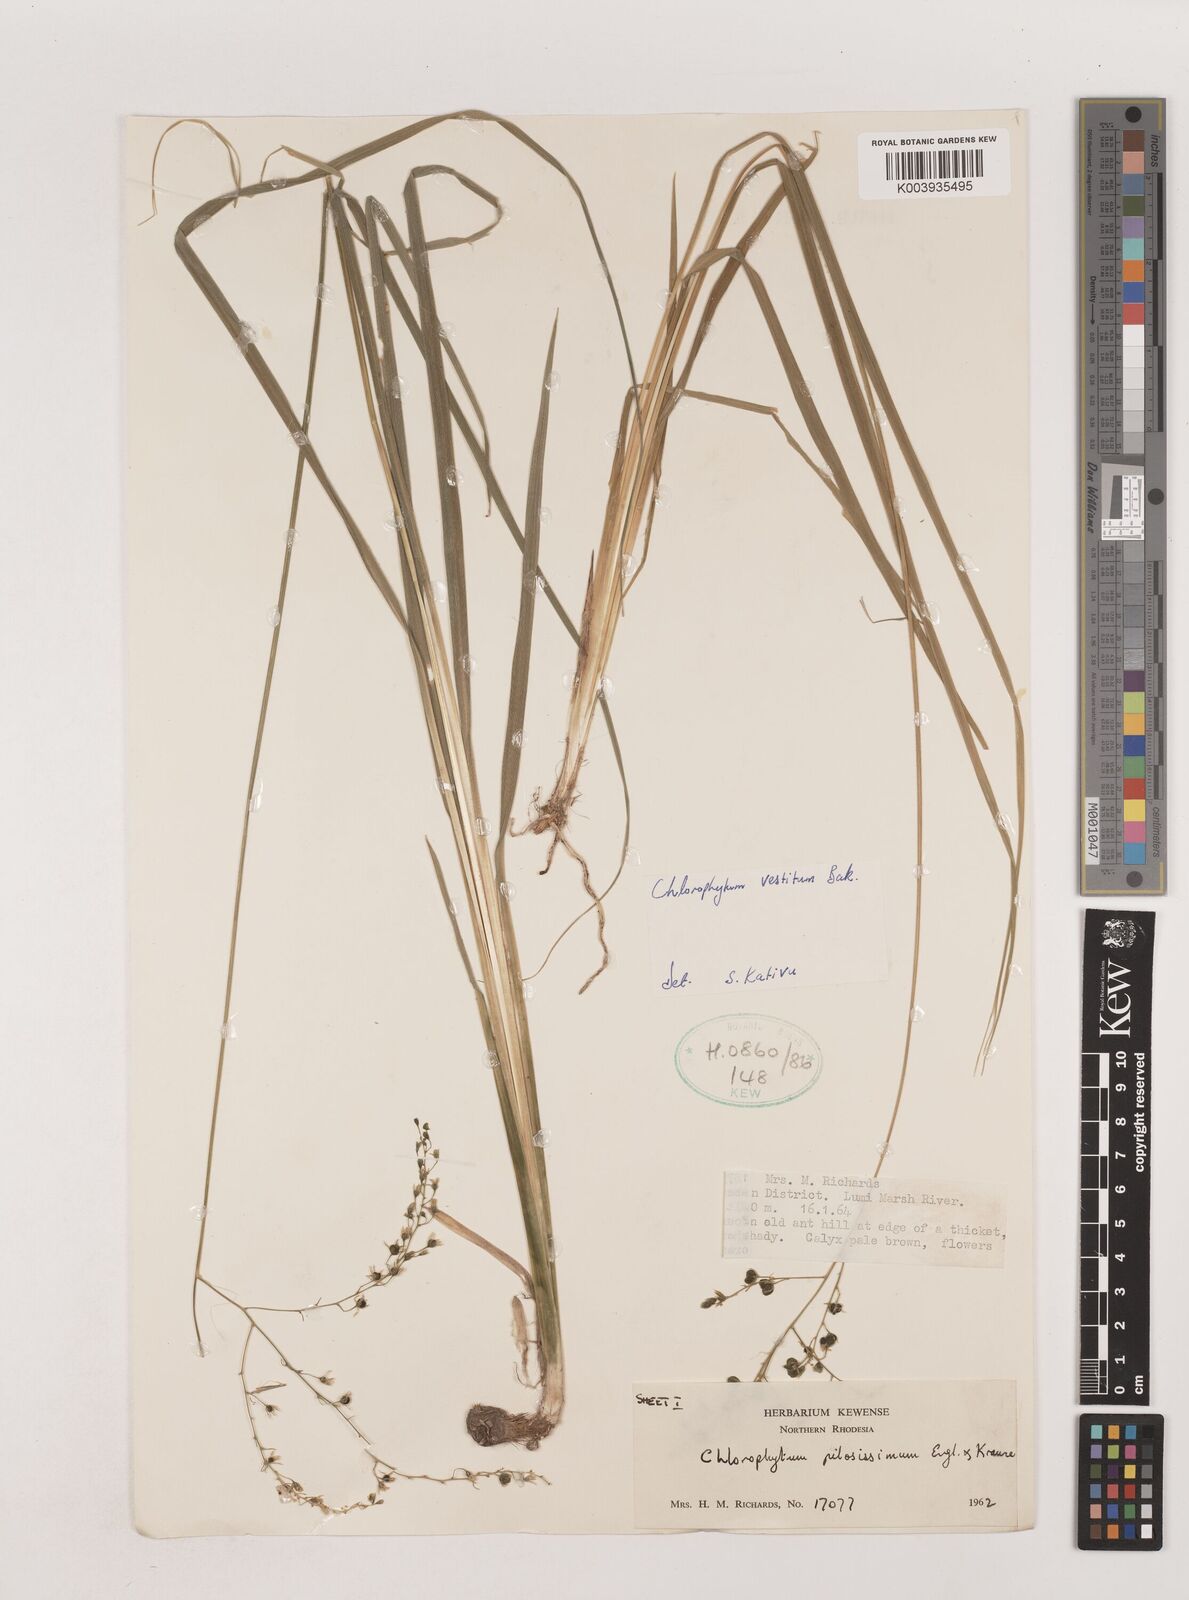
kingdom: Plantae
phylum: Tracheophyta
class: Liliopsida
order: Asparagales
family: Asparagaceae
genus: Chlorophytum
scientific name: Chlorophytum vestitum
